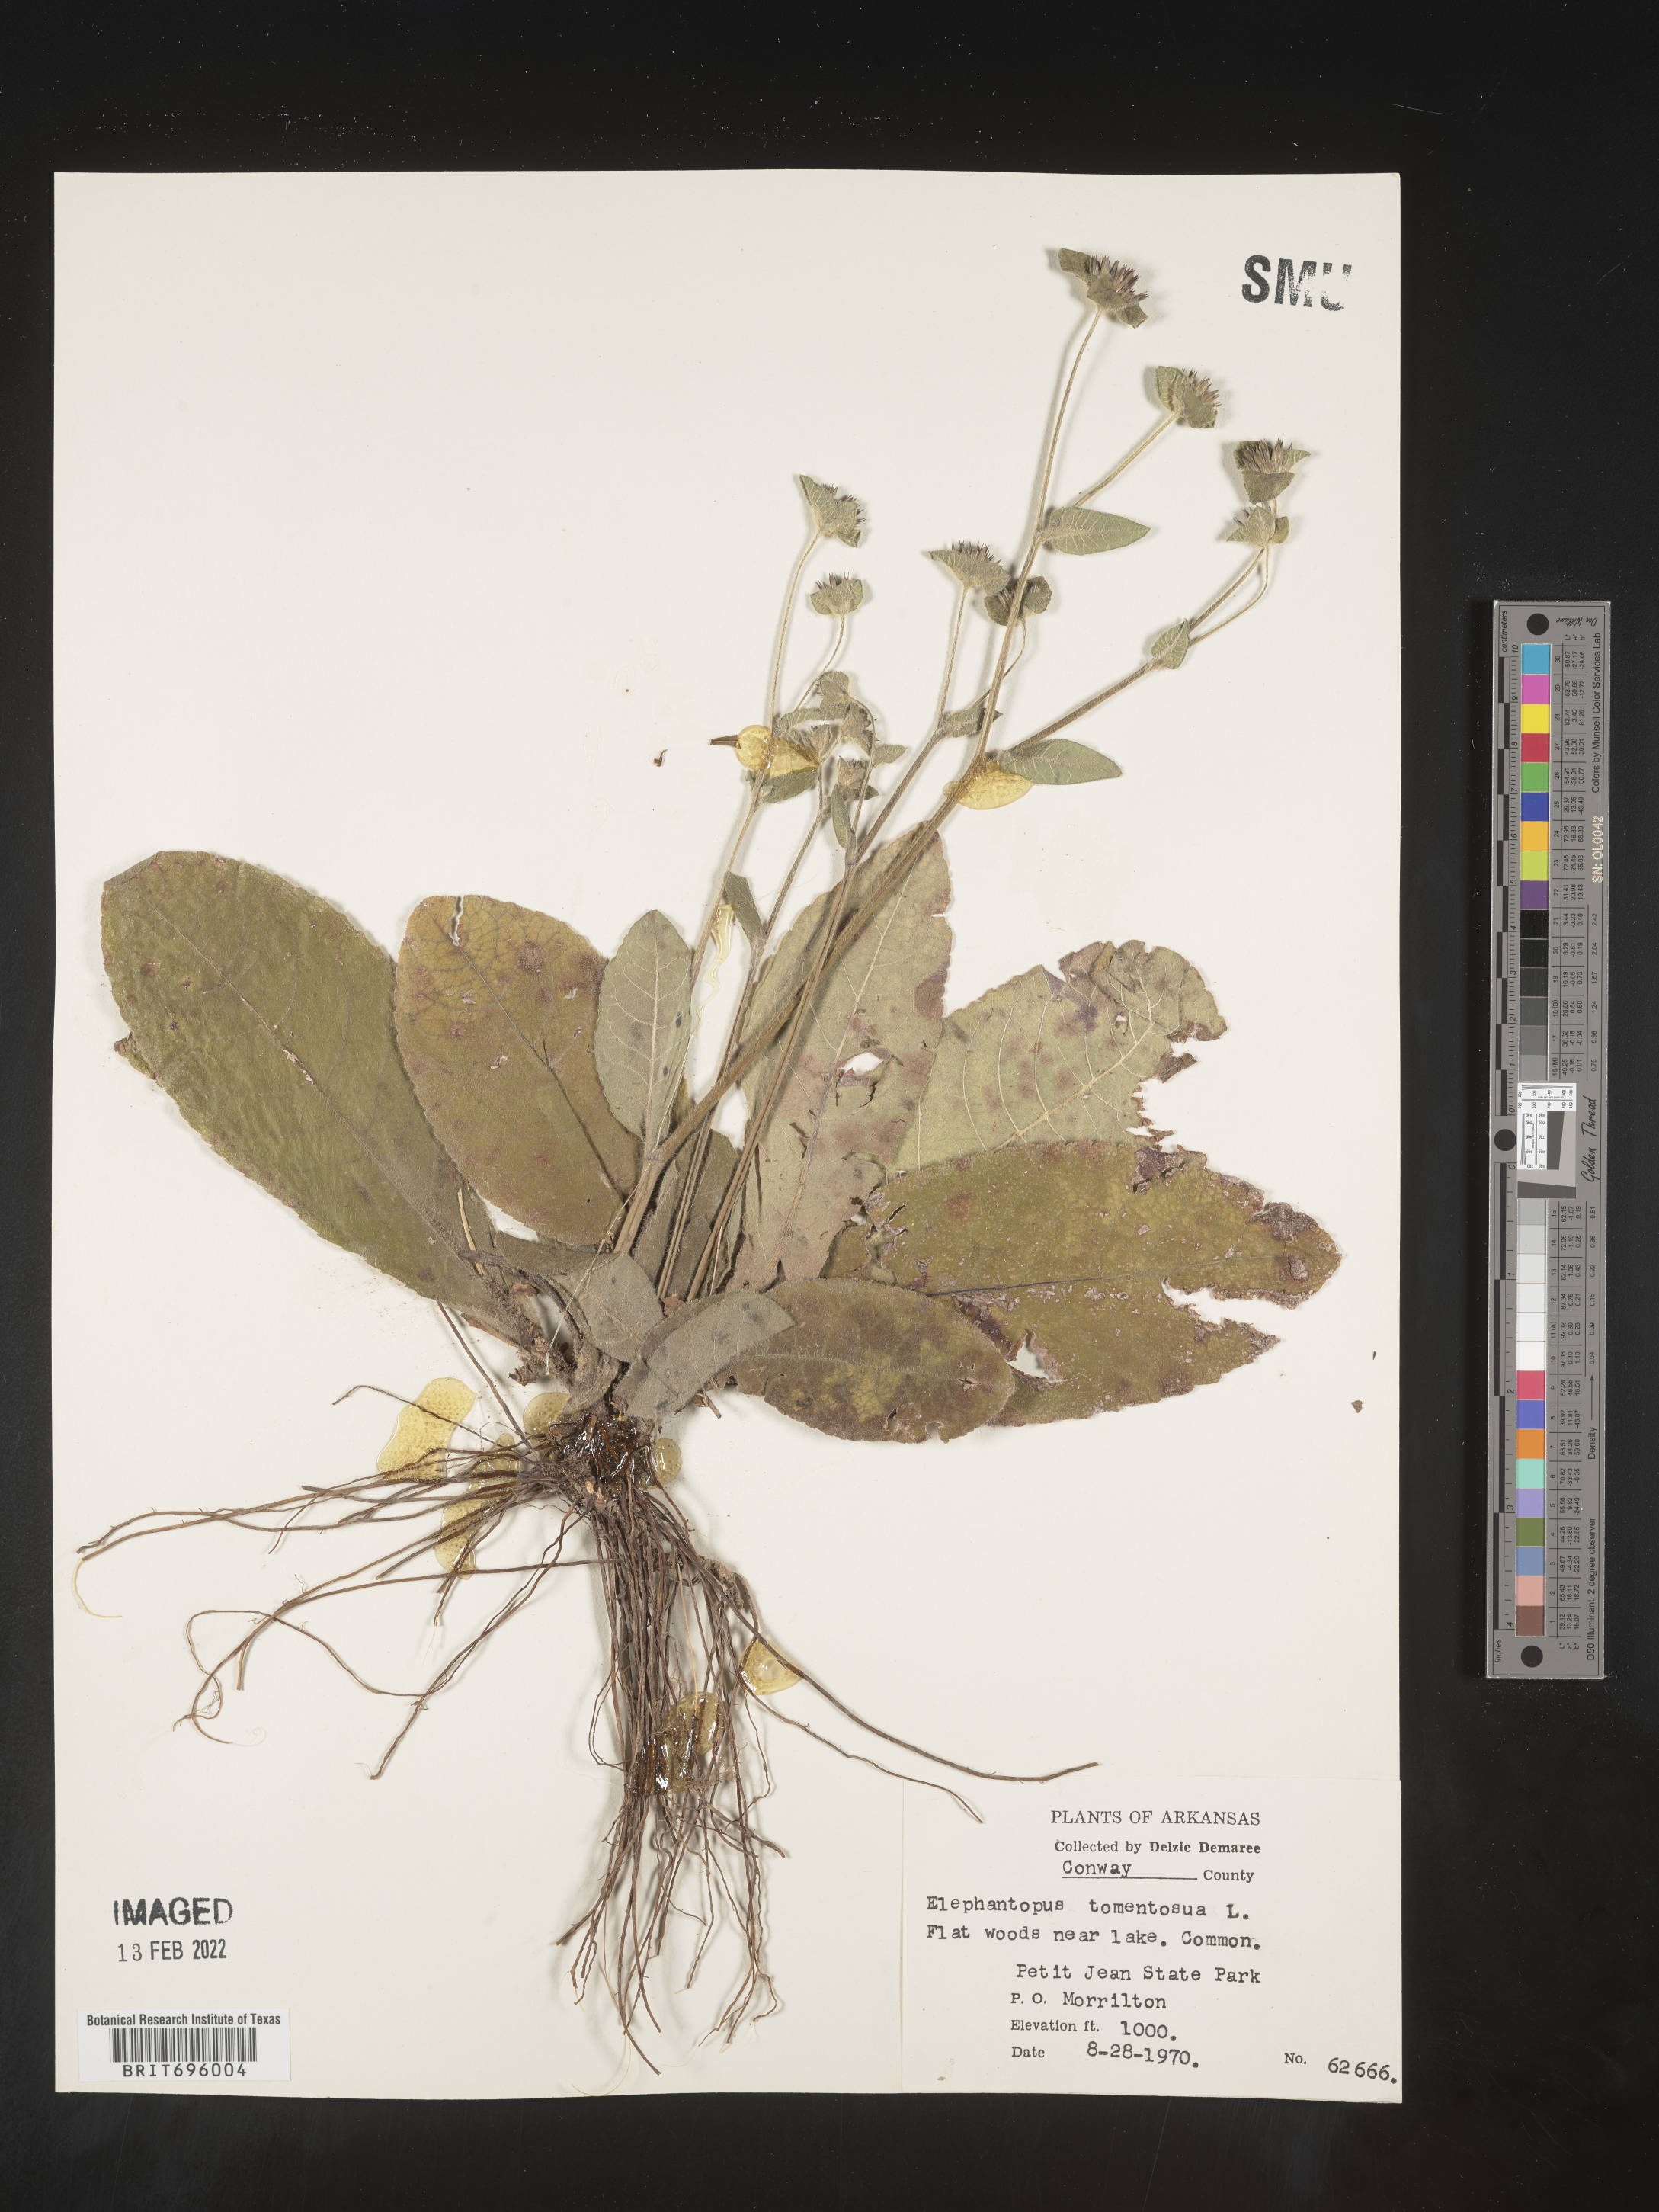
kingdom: Plantae
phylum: Tracheophyta
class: Magnoliopsida
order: Asterales
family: Asteraceae
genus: Elephantopus
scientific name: Elephantopus tomentosus
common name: Tobacco-weed
